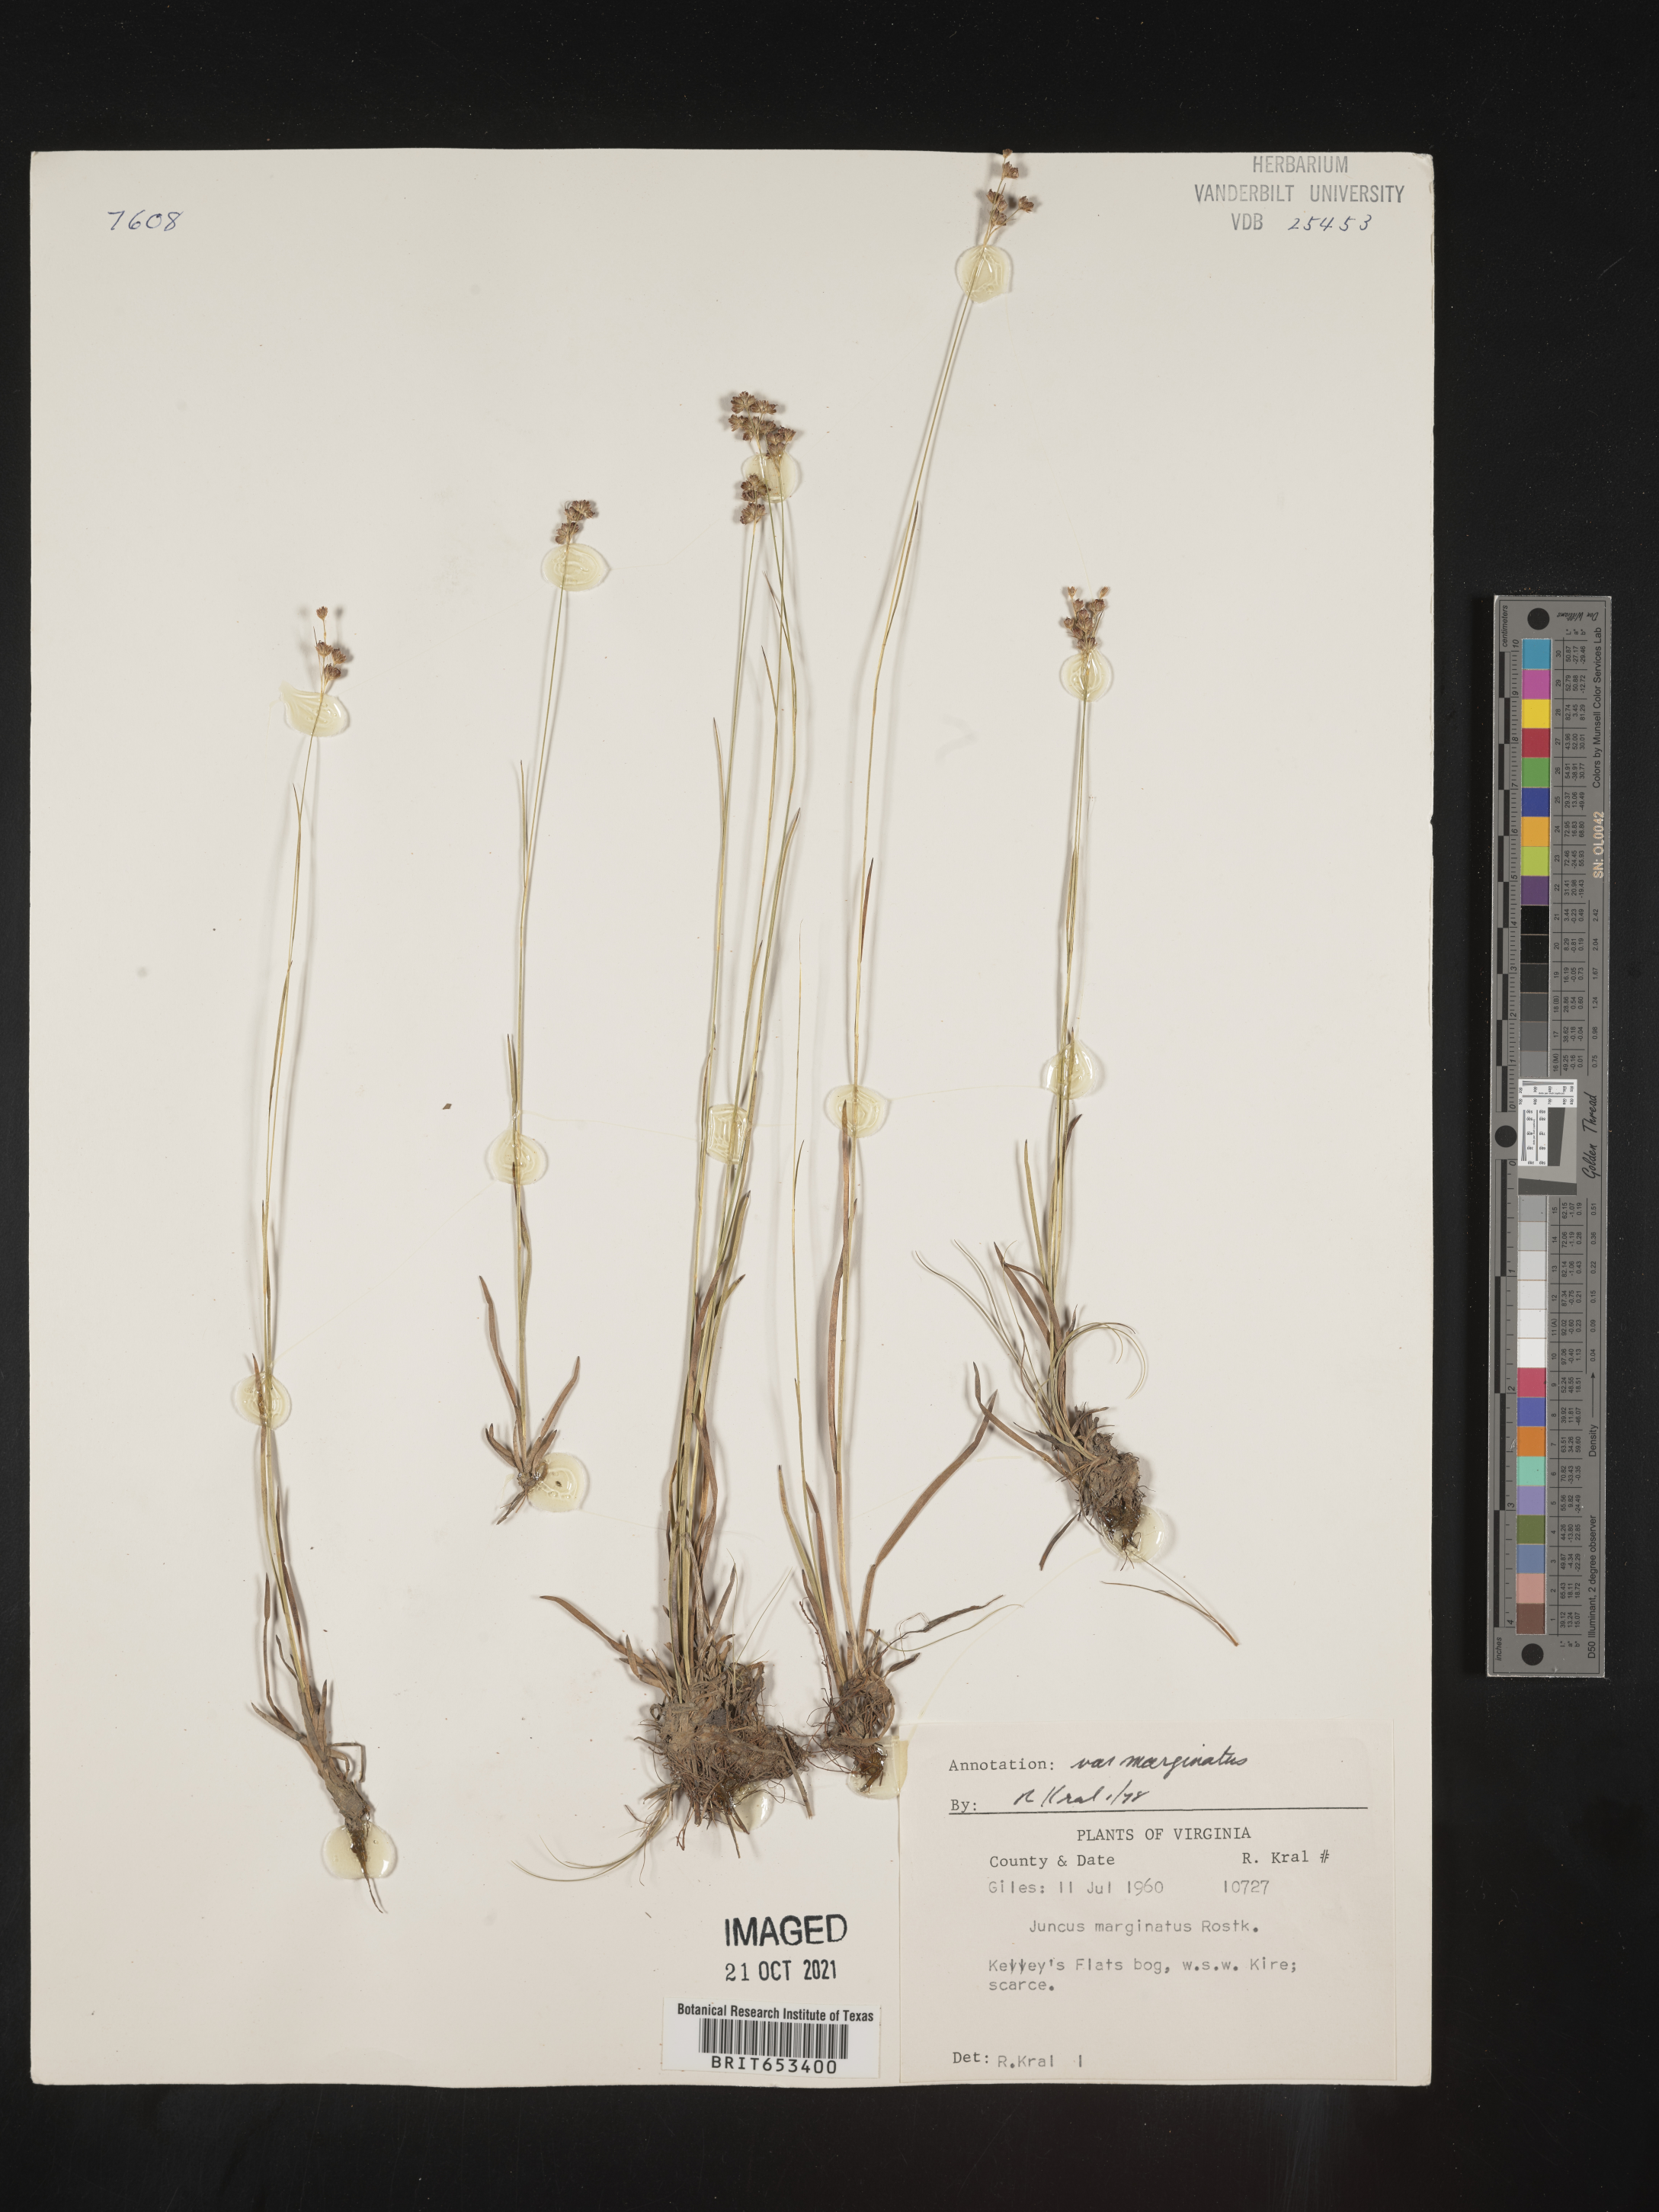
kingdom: Plantae
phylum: Tracheophyta
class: Liliopsida
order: Poales
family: Juncaceae
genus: Juncus
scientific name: Juncus marginatus
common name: Grass-leaf rush
